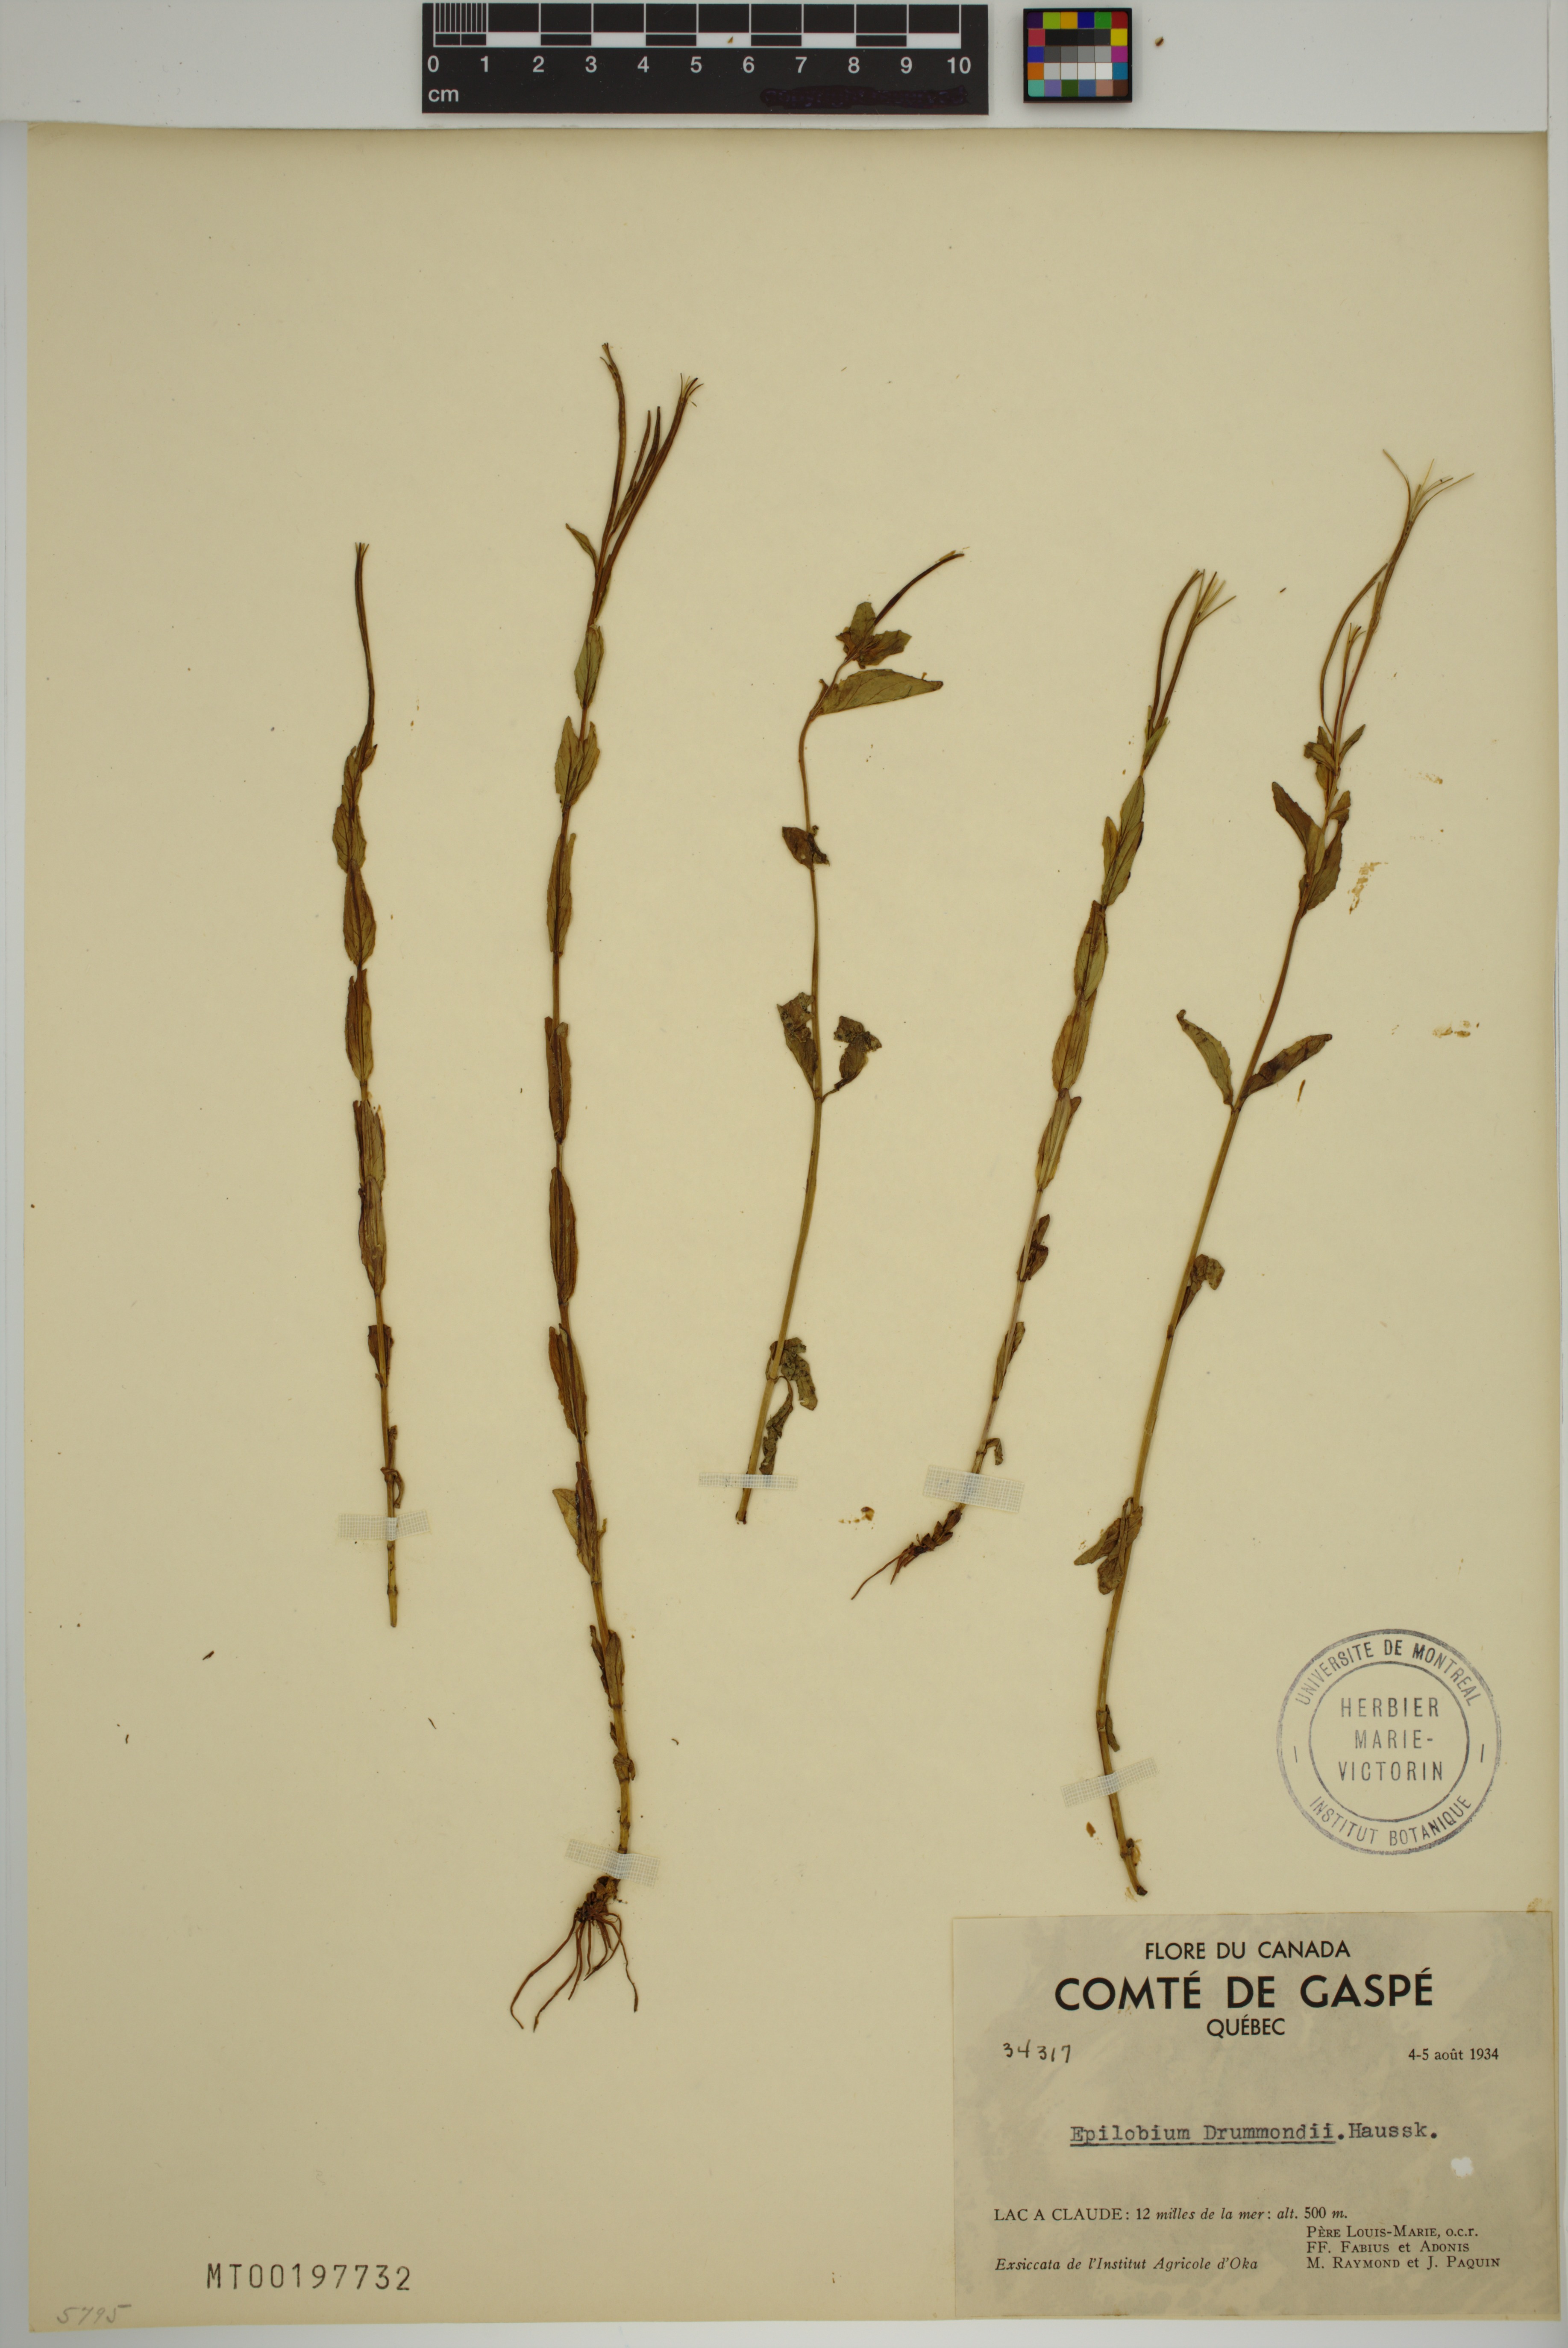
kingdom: Plantae
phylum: Tracheophyta
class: Magnoliopsida
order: Myrtales
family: Onagraceae
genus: Epilobium
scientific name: Epilobium saximontanum
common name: Rocky mountain willowherb
